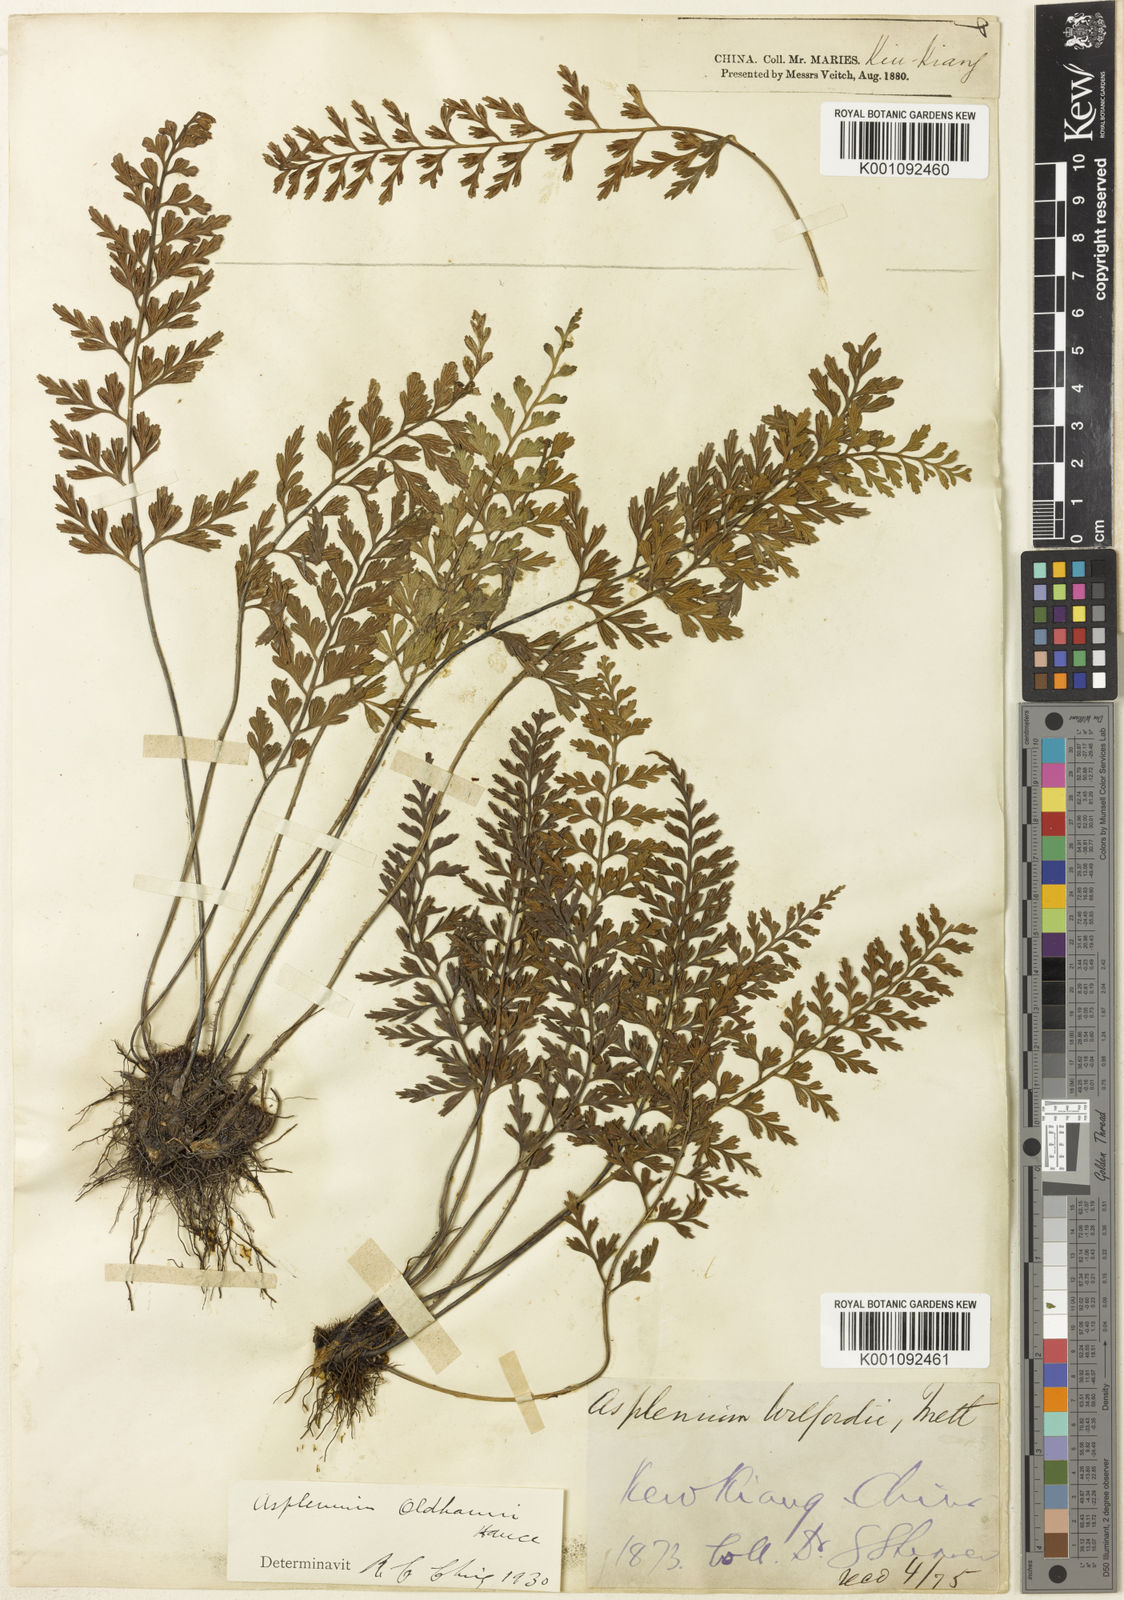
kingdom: Plantae
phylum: Tracheophyta
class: Polypodiopsida
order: Polypodiales
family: Aspleniaceae
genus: Asplenium
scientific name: Asplenium oldhamii
